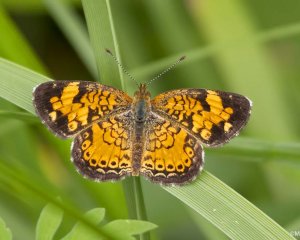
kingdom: Animalia
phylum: Arthropoda
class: Insecta
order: Lepidoptera
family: Nymphalidae
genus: Phyciodes
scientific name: Phyciodes tharos
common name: Northern Crescent
